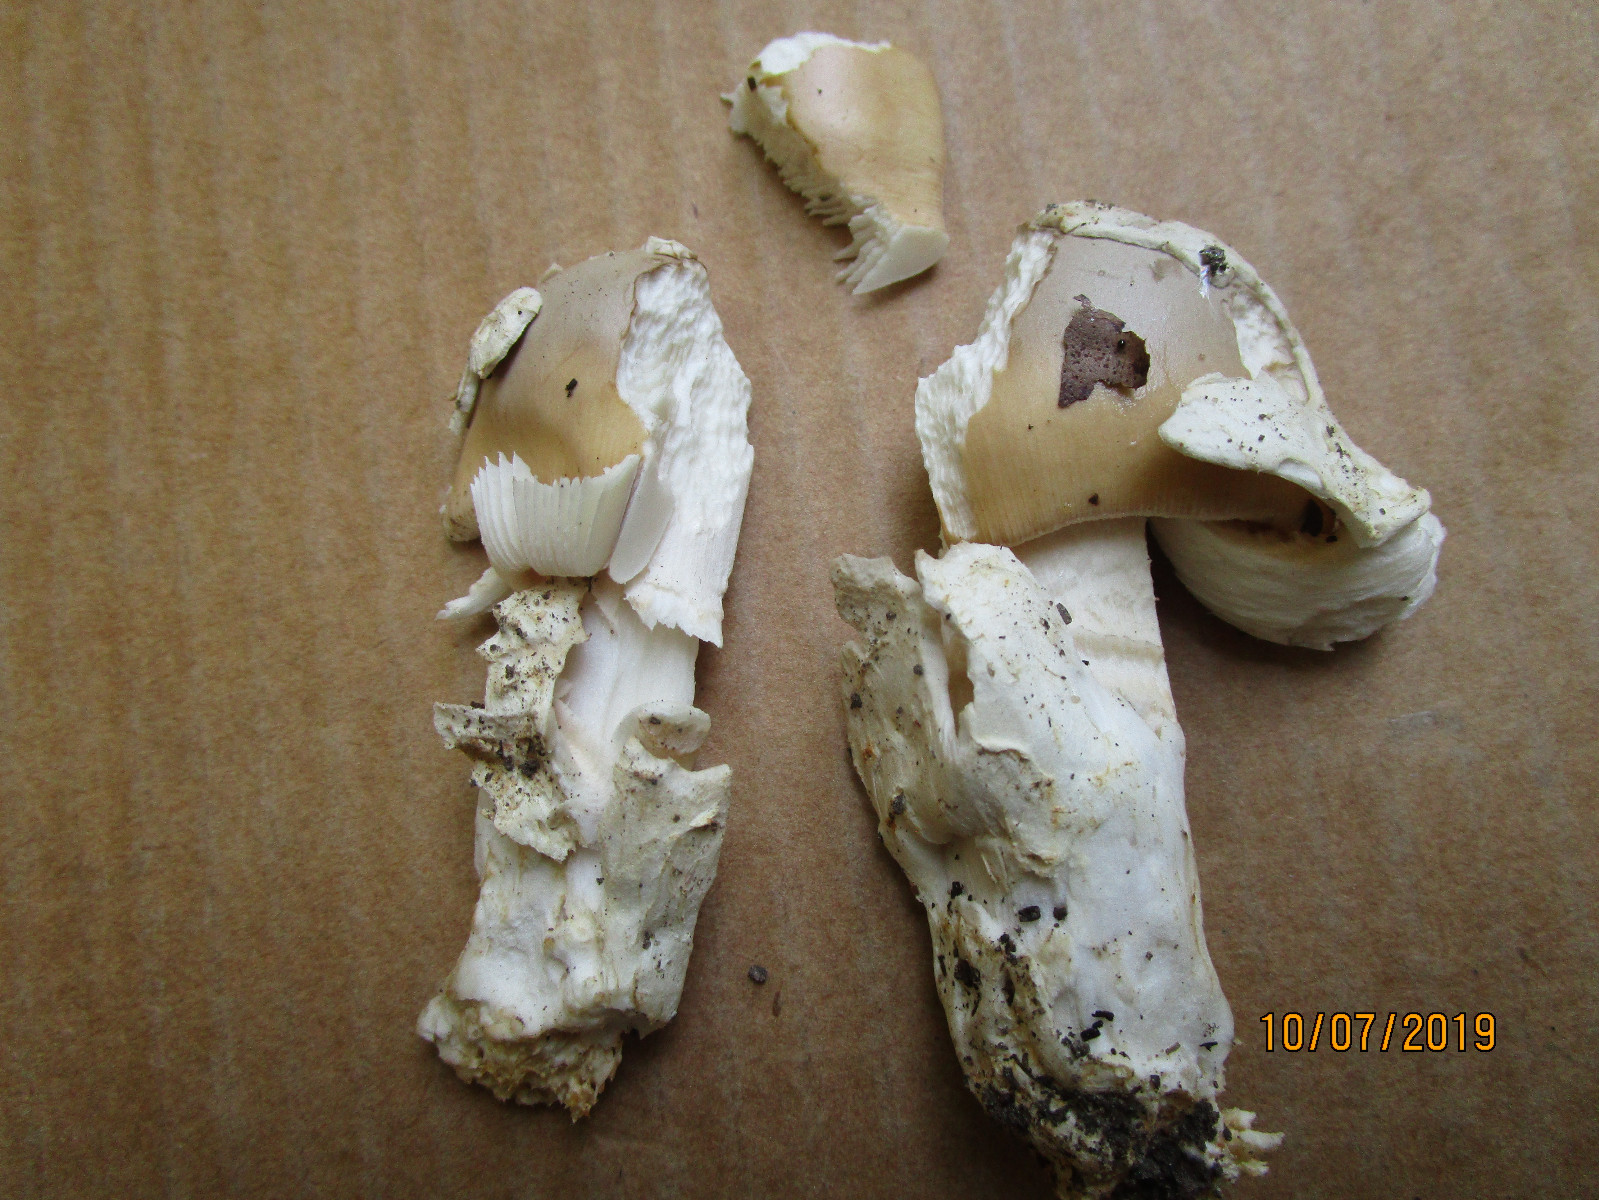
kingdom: Fungi
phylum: Basidiomycota
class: Agaricomycetes
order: Agaricales
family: Amanitaceae
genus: Amanita
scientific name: Amanita lividopallescens
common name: afblegende kam-fluesvamp
